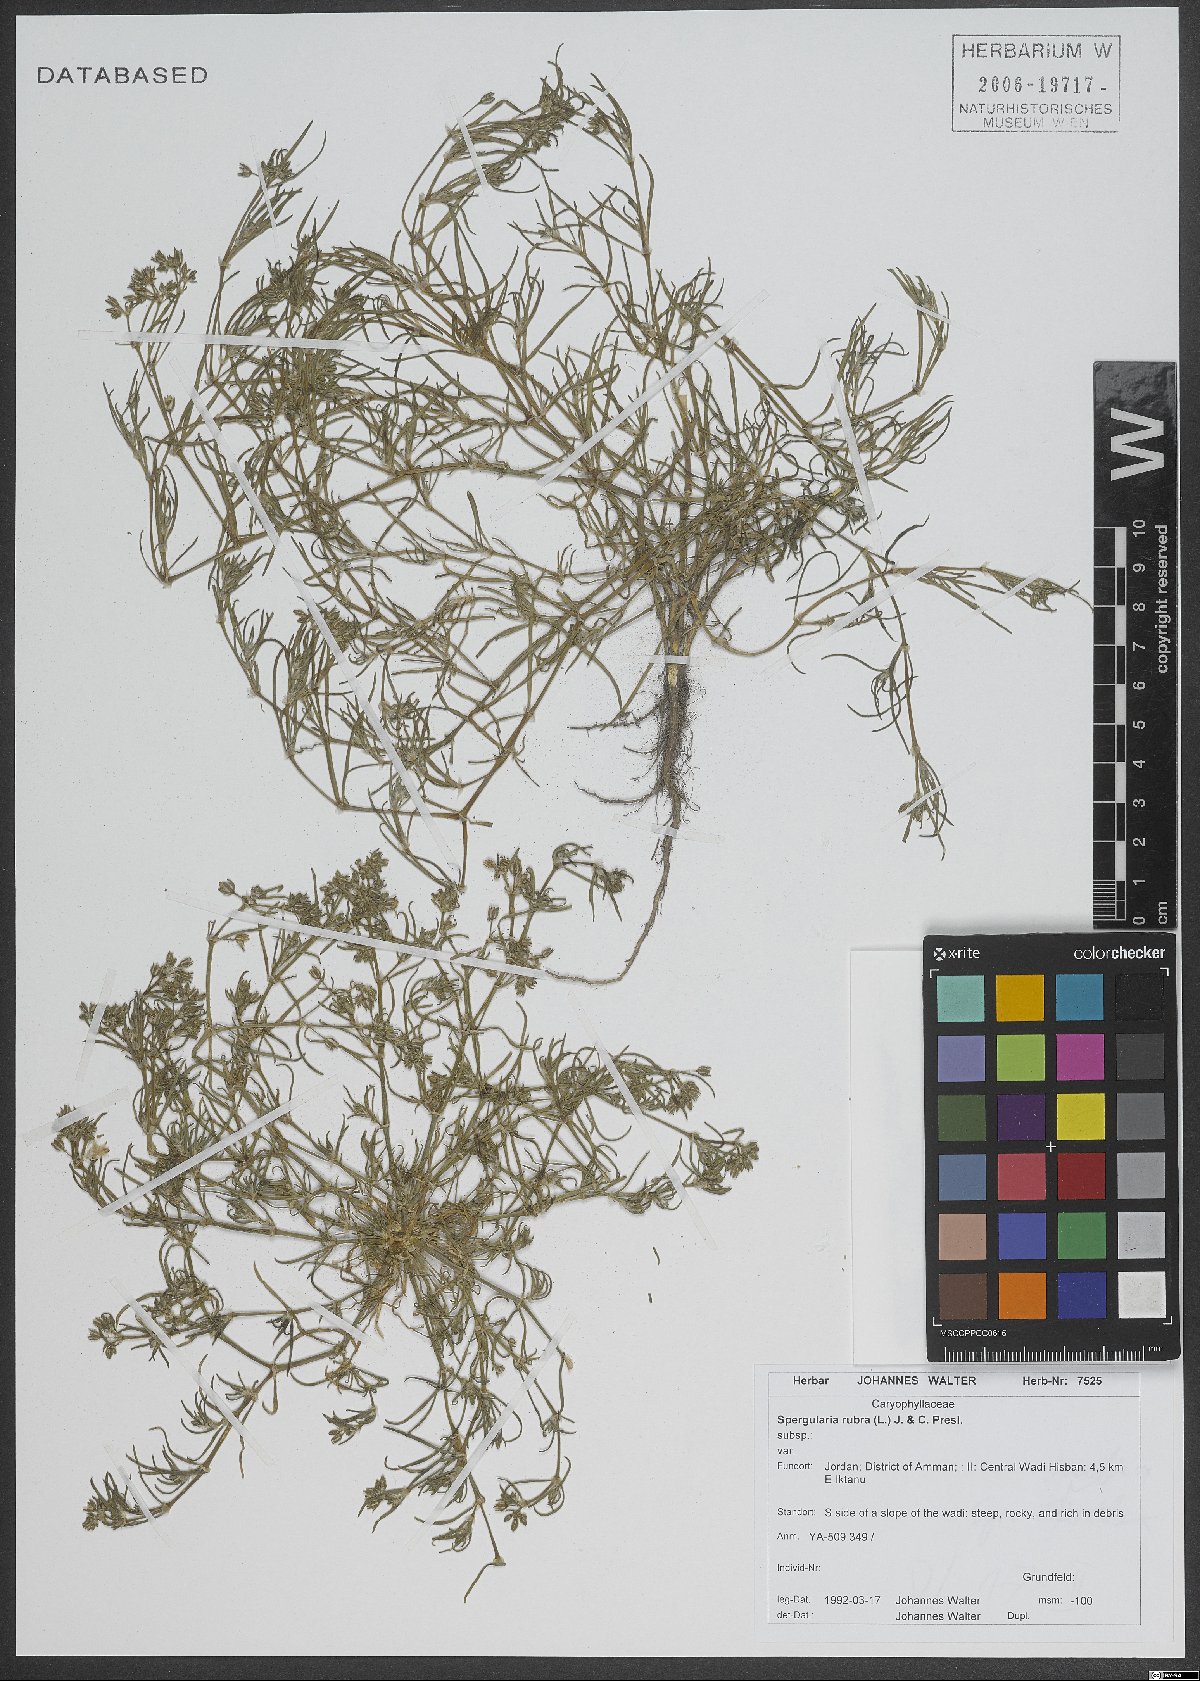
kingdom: Plantae
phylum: Tracheophyta
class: Magnoliopsida
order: Caryophyllales
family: Caryophyllaceae
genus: Spergularia
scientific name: Spergularia rubra
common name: Red sand-spurrey
